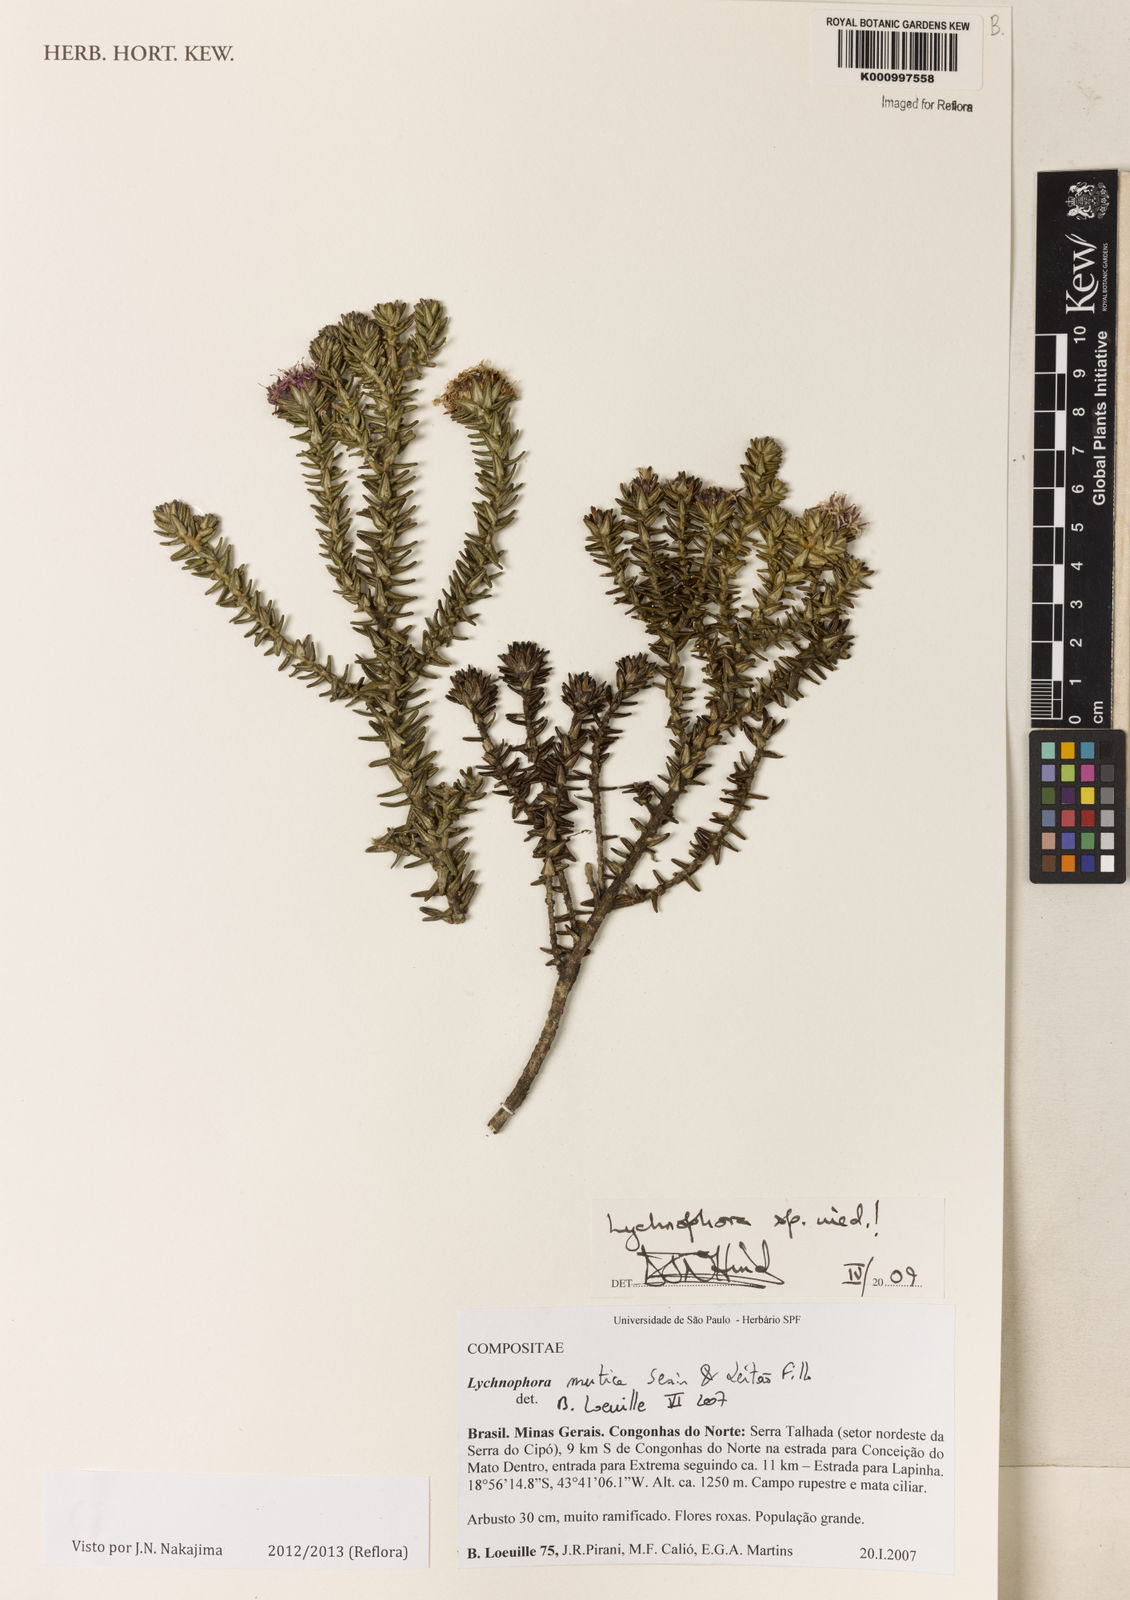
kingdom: Plantae
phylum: Tracheophyta
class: Magnoliopsida
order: Asterales
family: Asteraceae
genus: Lychnophora
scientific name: Lychnophora
